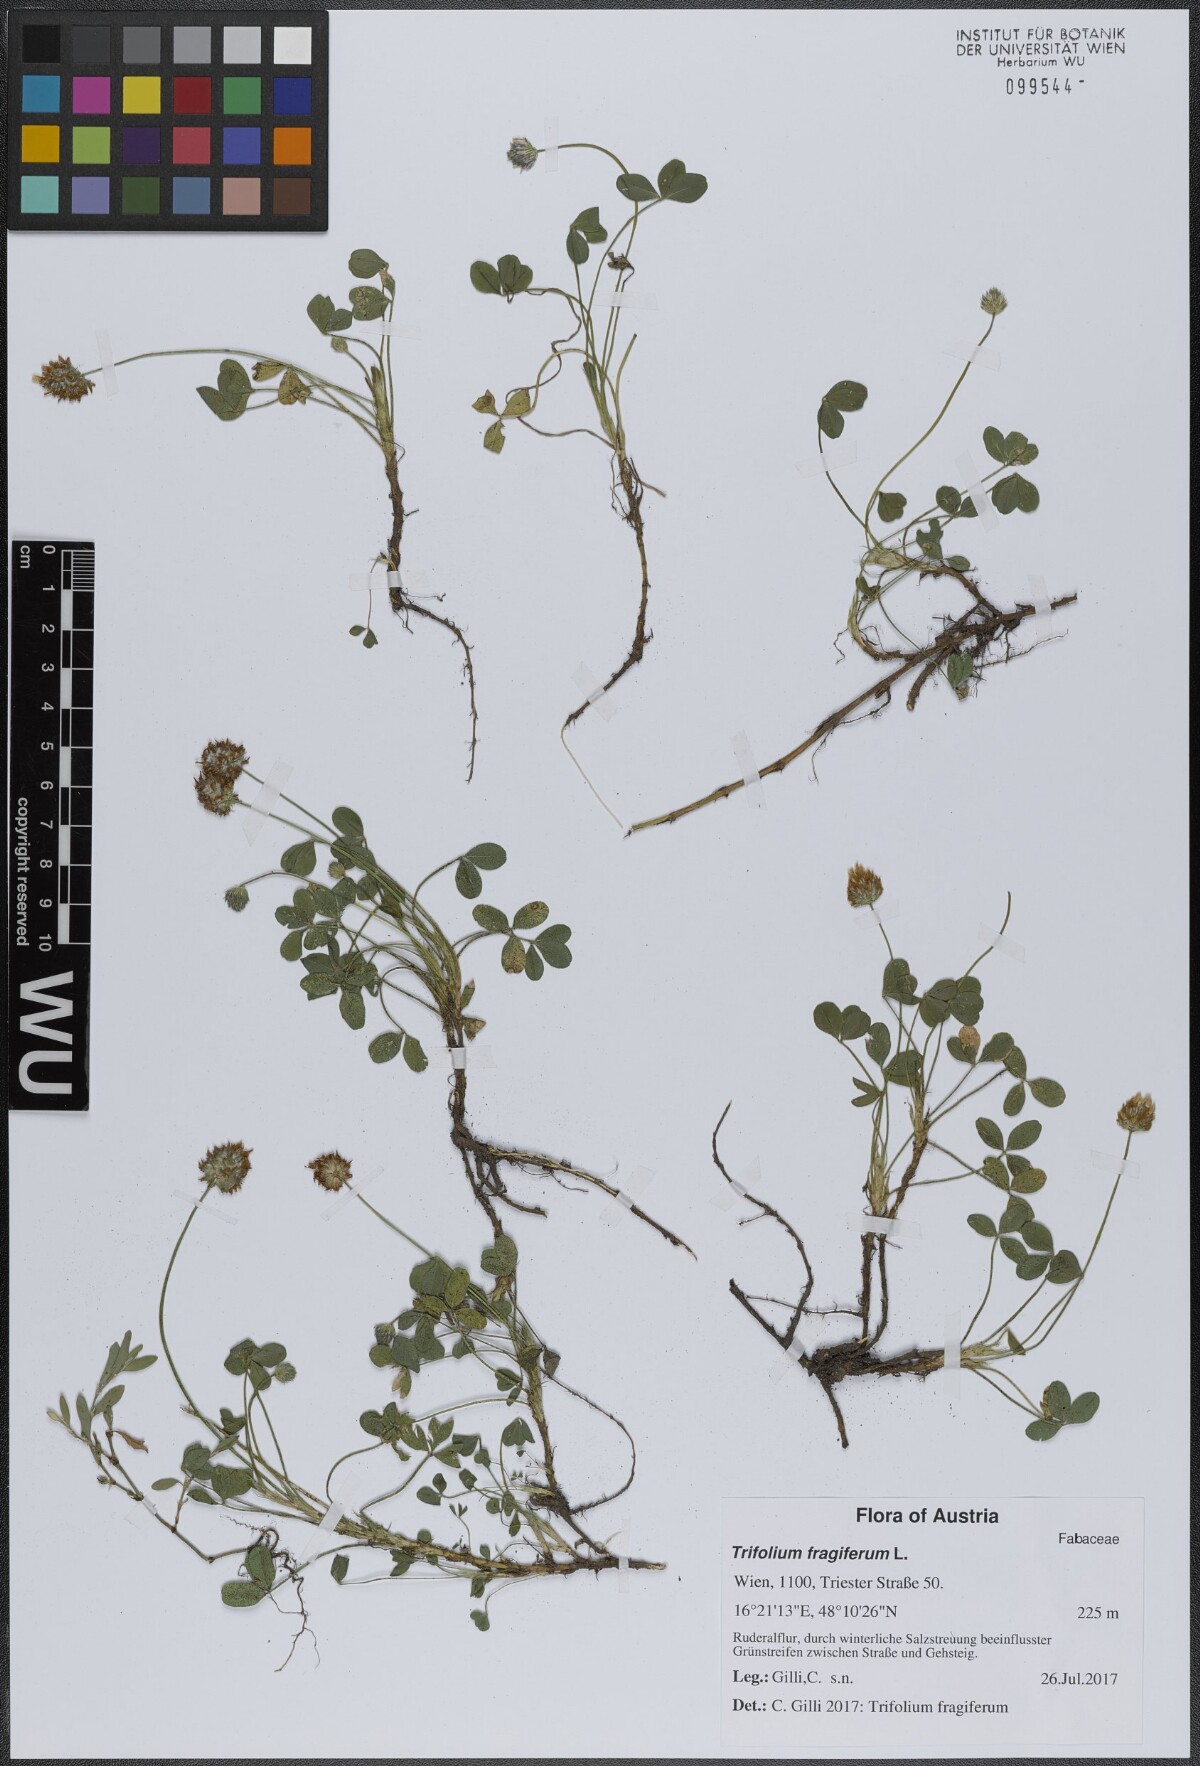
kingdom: Plantae
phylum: Tracheophyta
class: Magnoliopsida
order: Fabales
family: Fabaceae
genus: Trifolium
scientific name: Trifolium fragiferum
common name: Strawberry clover
